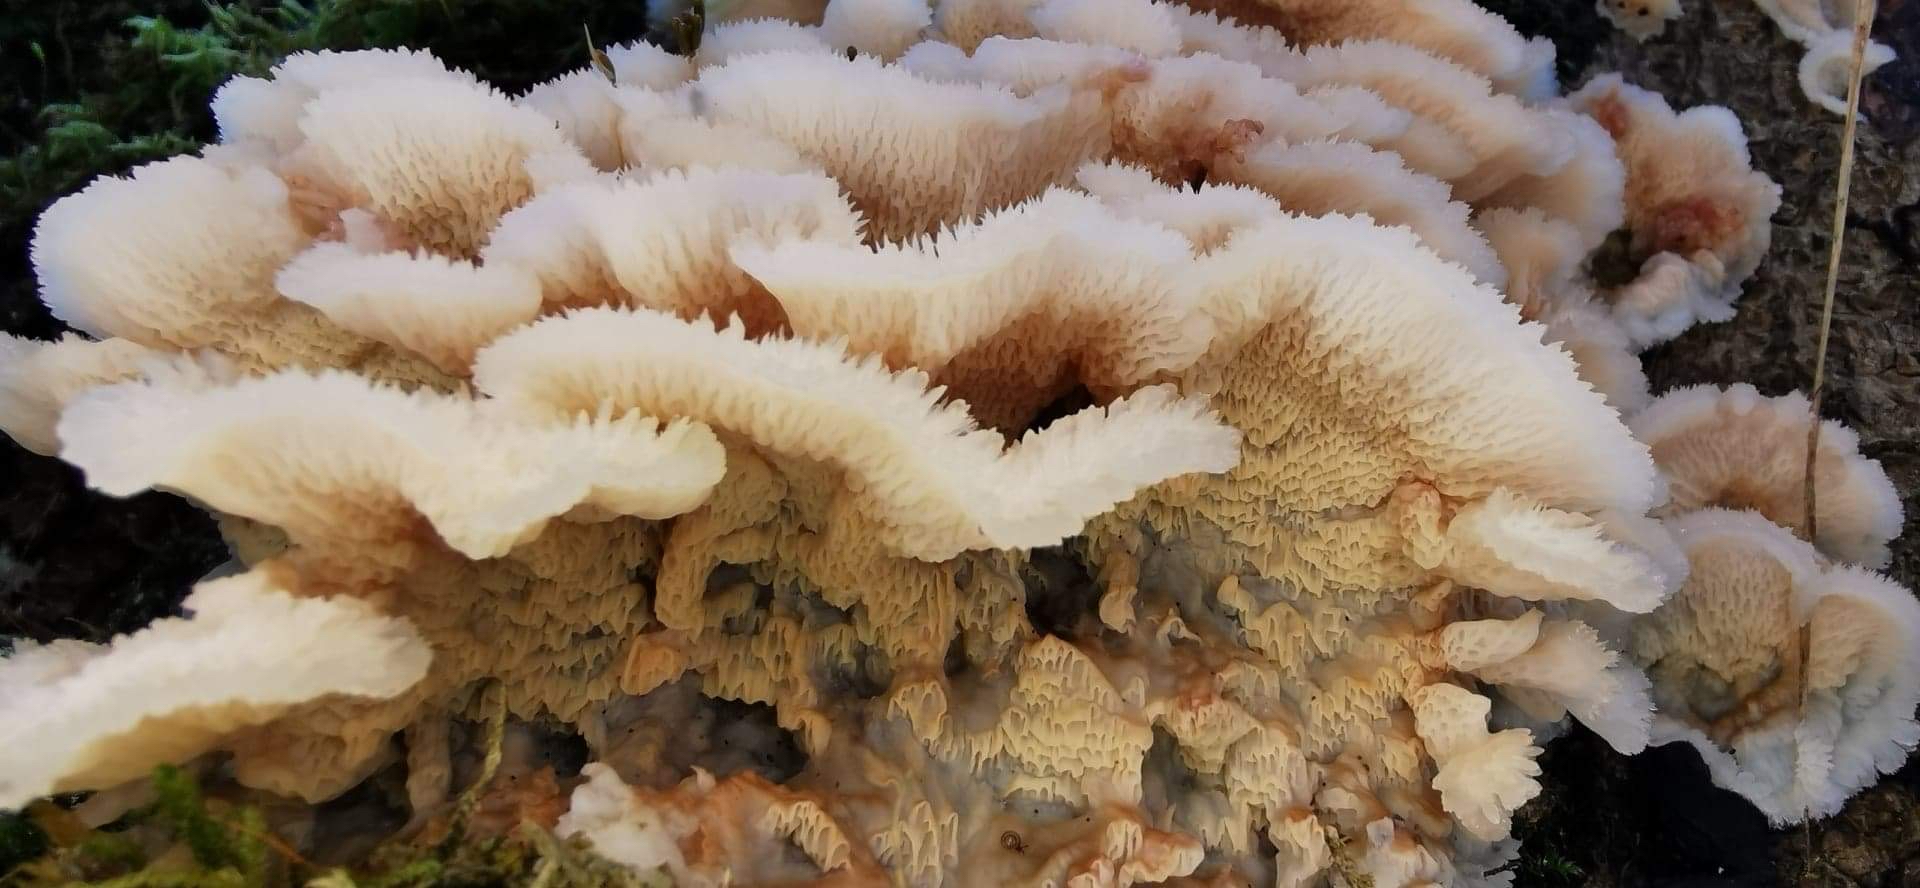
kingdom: Fungi
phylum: Basidiomycota
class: Agaricomycetes
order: Polyporales
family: Meruliaceae
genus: Phlebia
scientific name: Phlebia tremellosa
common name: bævrende åresvamp
